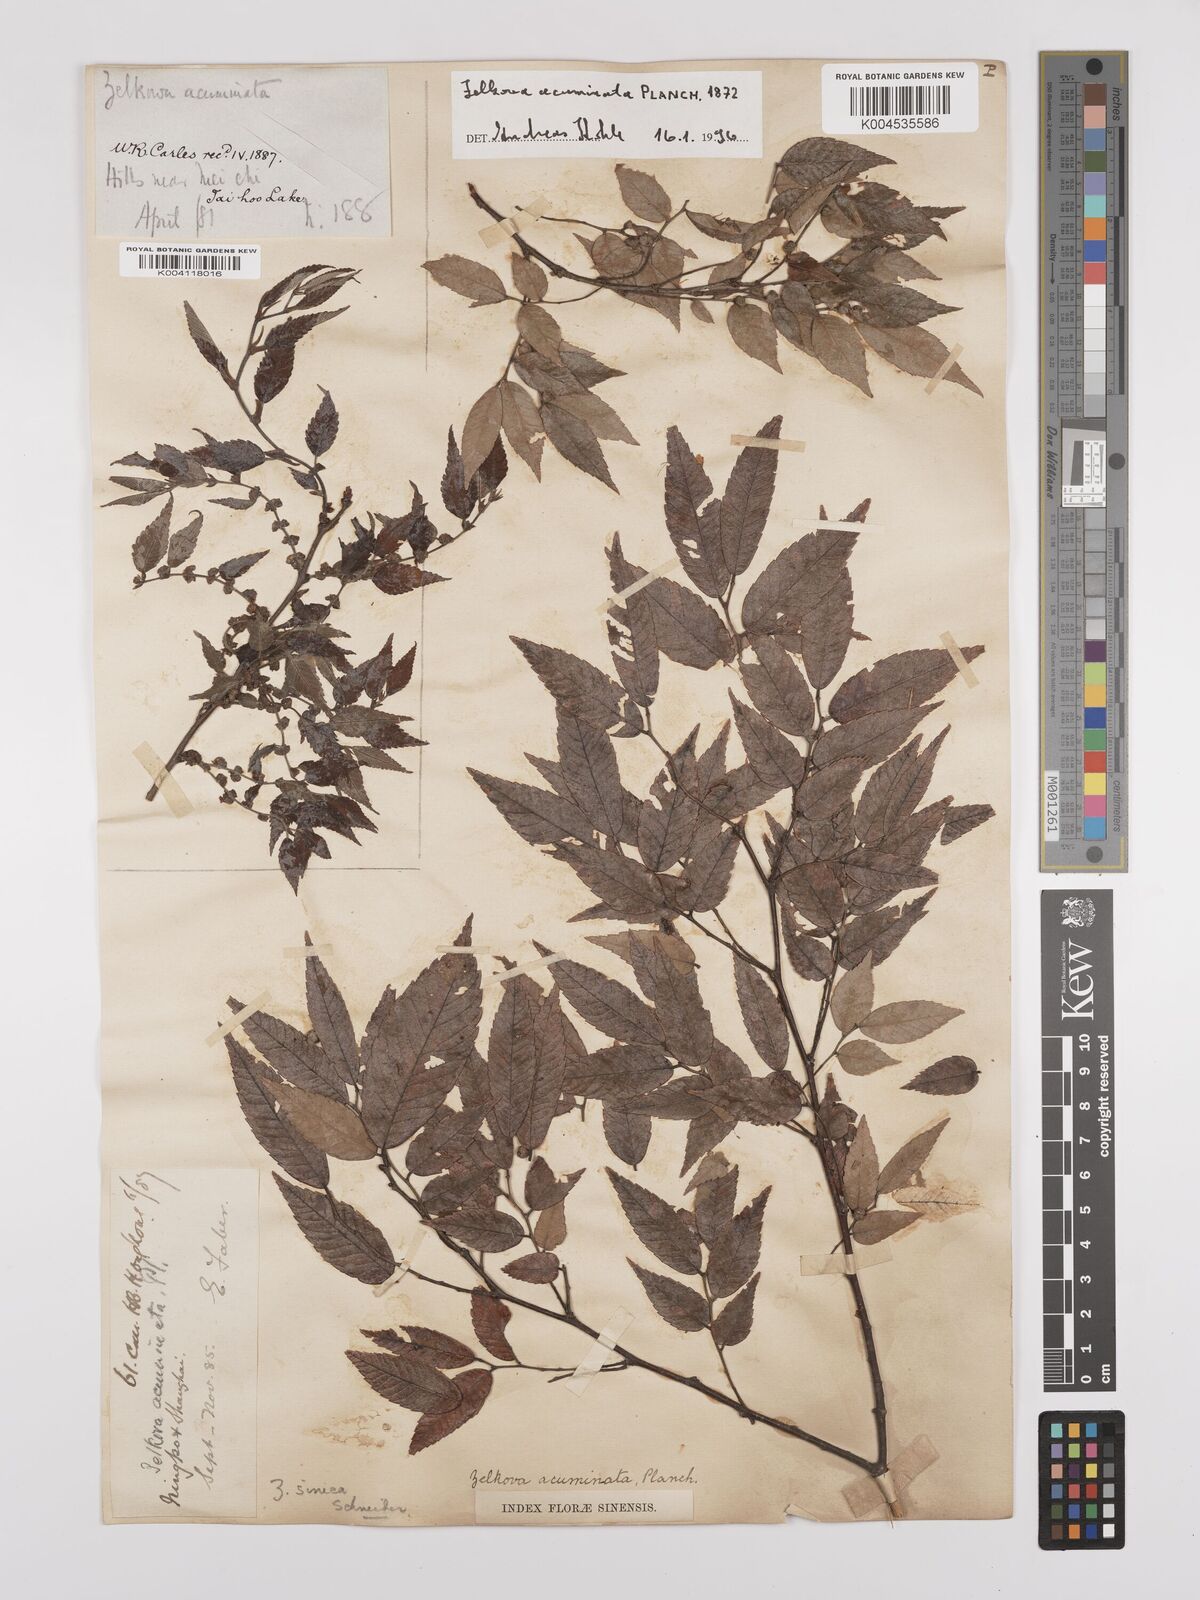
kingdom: Plantae
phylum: Tracheophyta
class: Magnoliopsida
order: Rosales
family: Ulmaceae
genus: Zelkova
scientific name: Zelkova serrata
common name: Japanese zelkova
